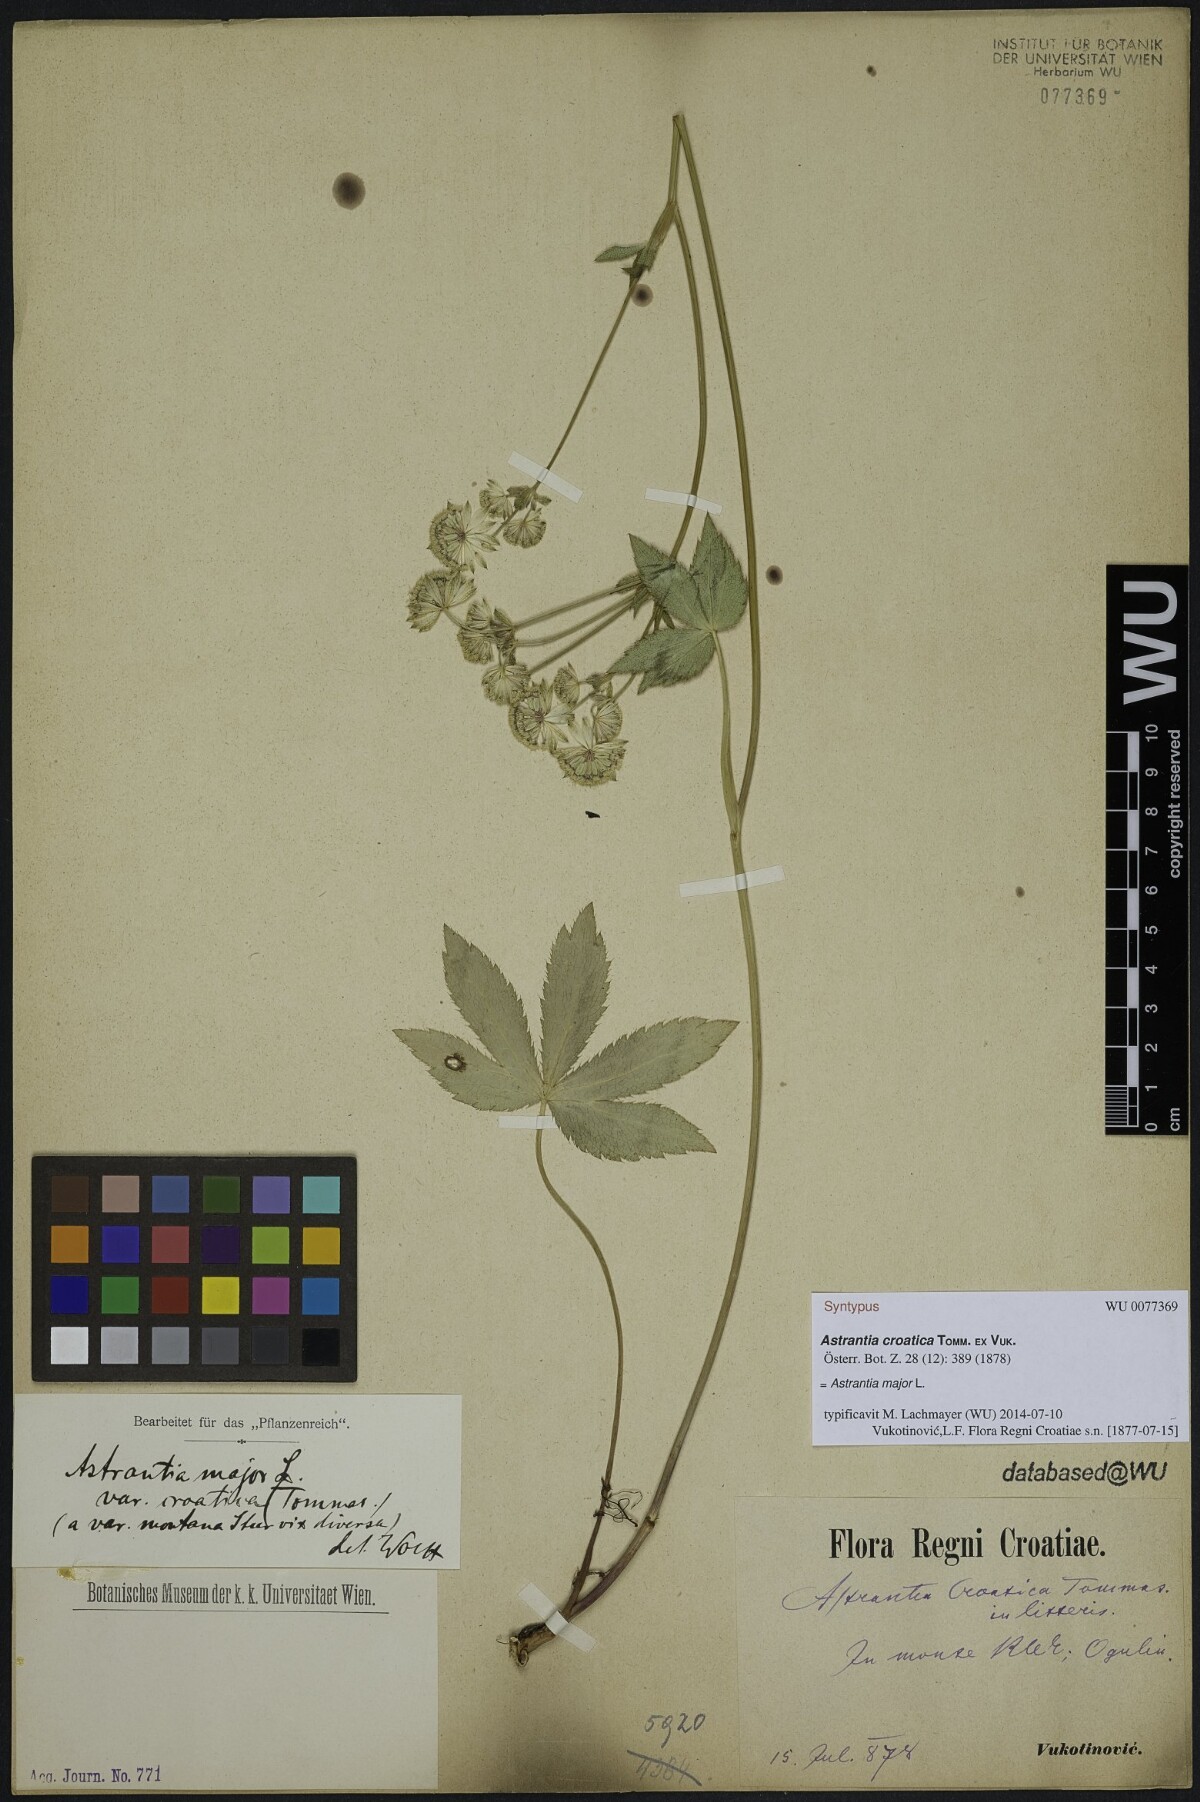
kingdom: Plantae
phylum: Tracheophyta
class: Magnoliopsida
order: Apiales
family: Apiaceae
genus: Astrantia
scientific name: Astrantia croatica
